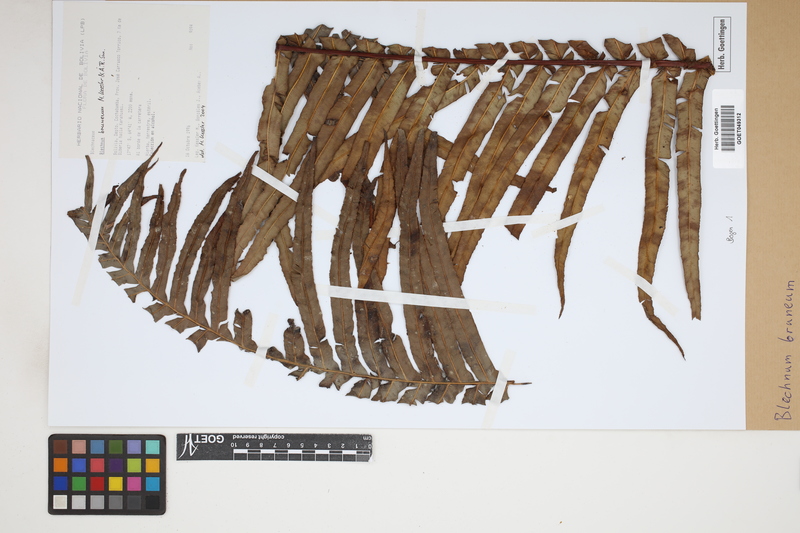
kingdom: Plantae
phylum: Tracheophyta
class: Polypodiopsida
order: Polypodiales
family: Blechnaceae
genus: Lomaria
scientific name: Lomaria brunea
